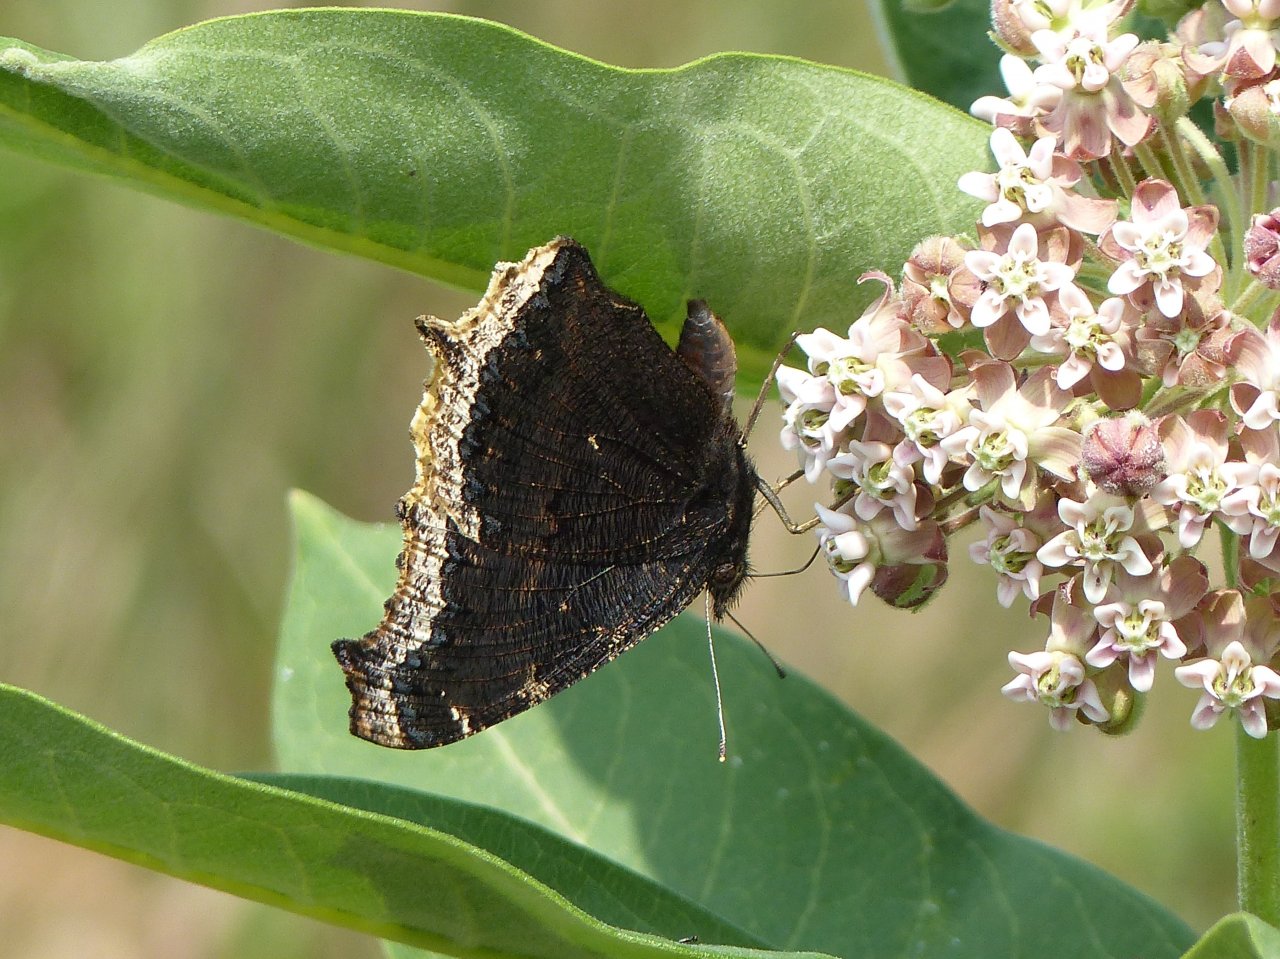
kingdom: Animalia
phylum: Arthropoda
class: Insecta
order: Lepidoptera
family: Nymphalidae
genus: Nymphalis
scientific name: Nymphalis antiopa
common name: Mourning Cloak
